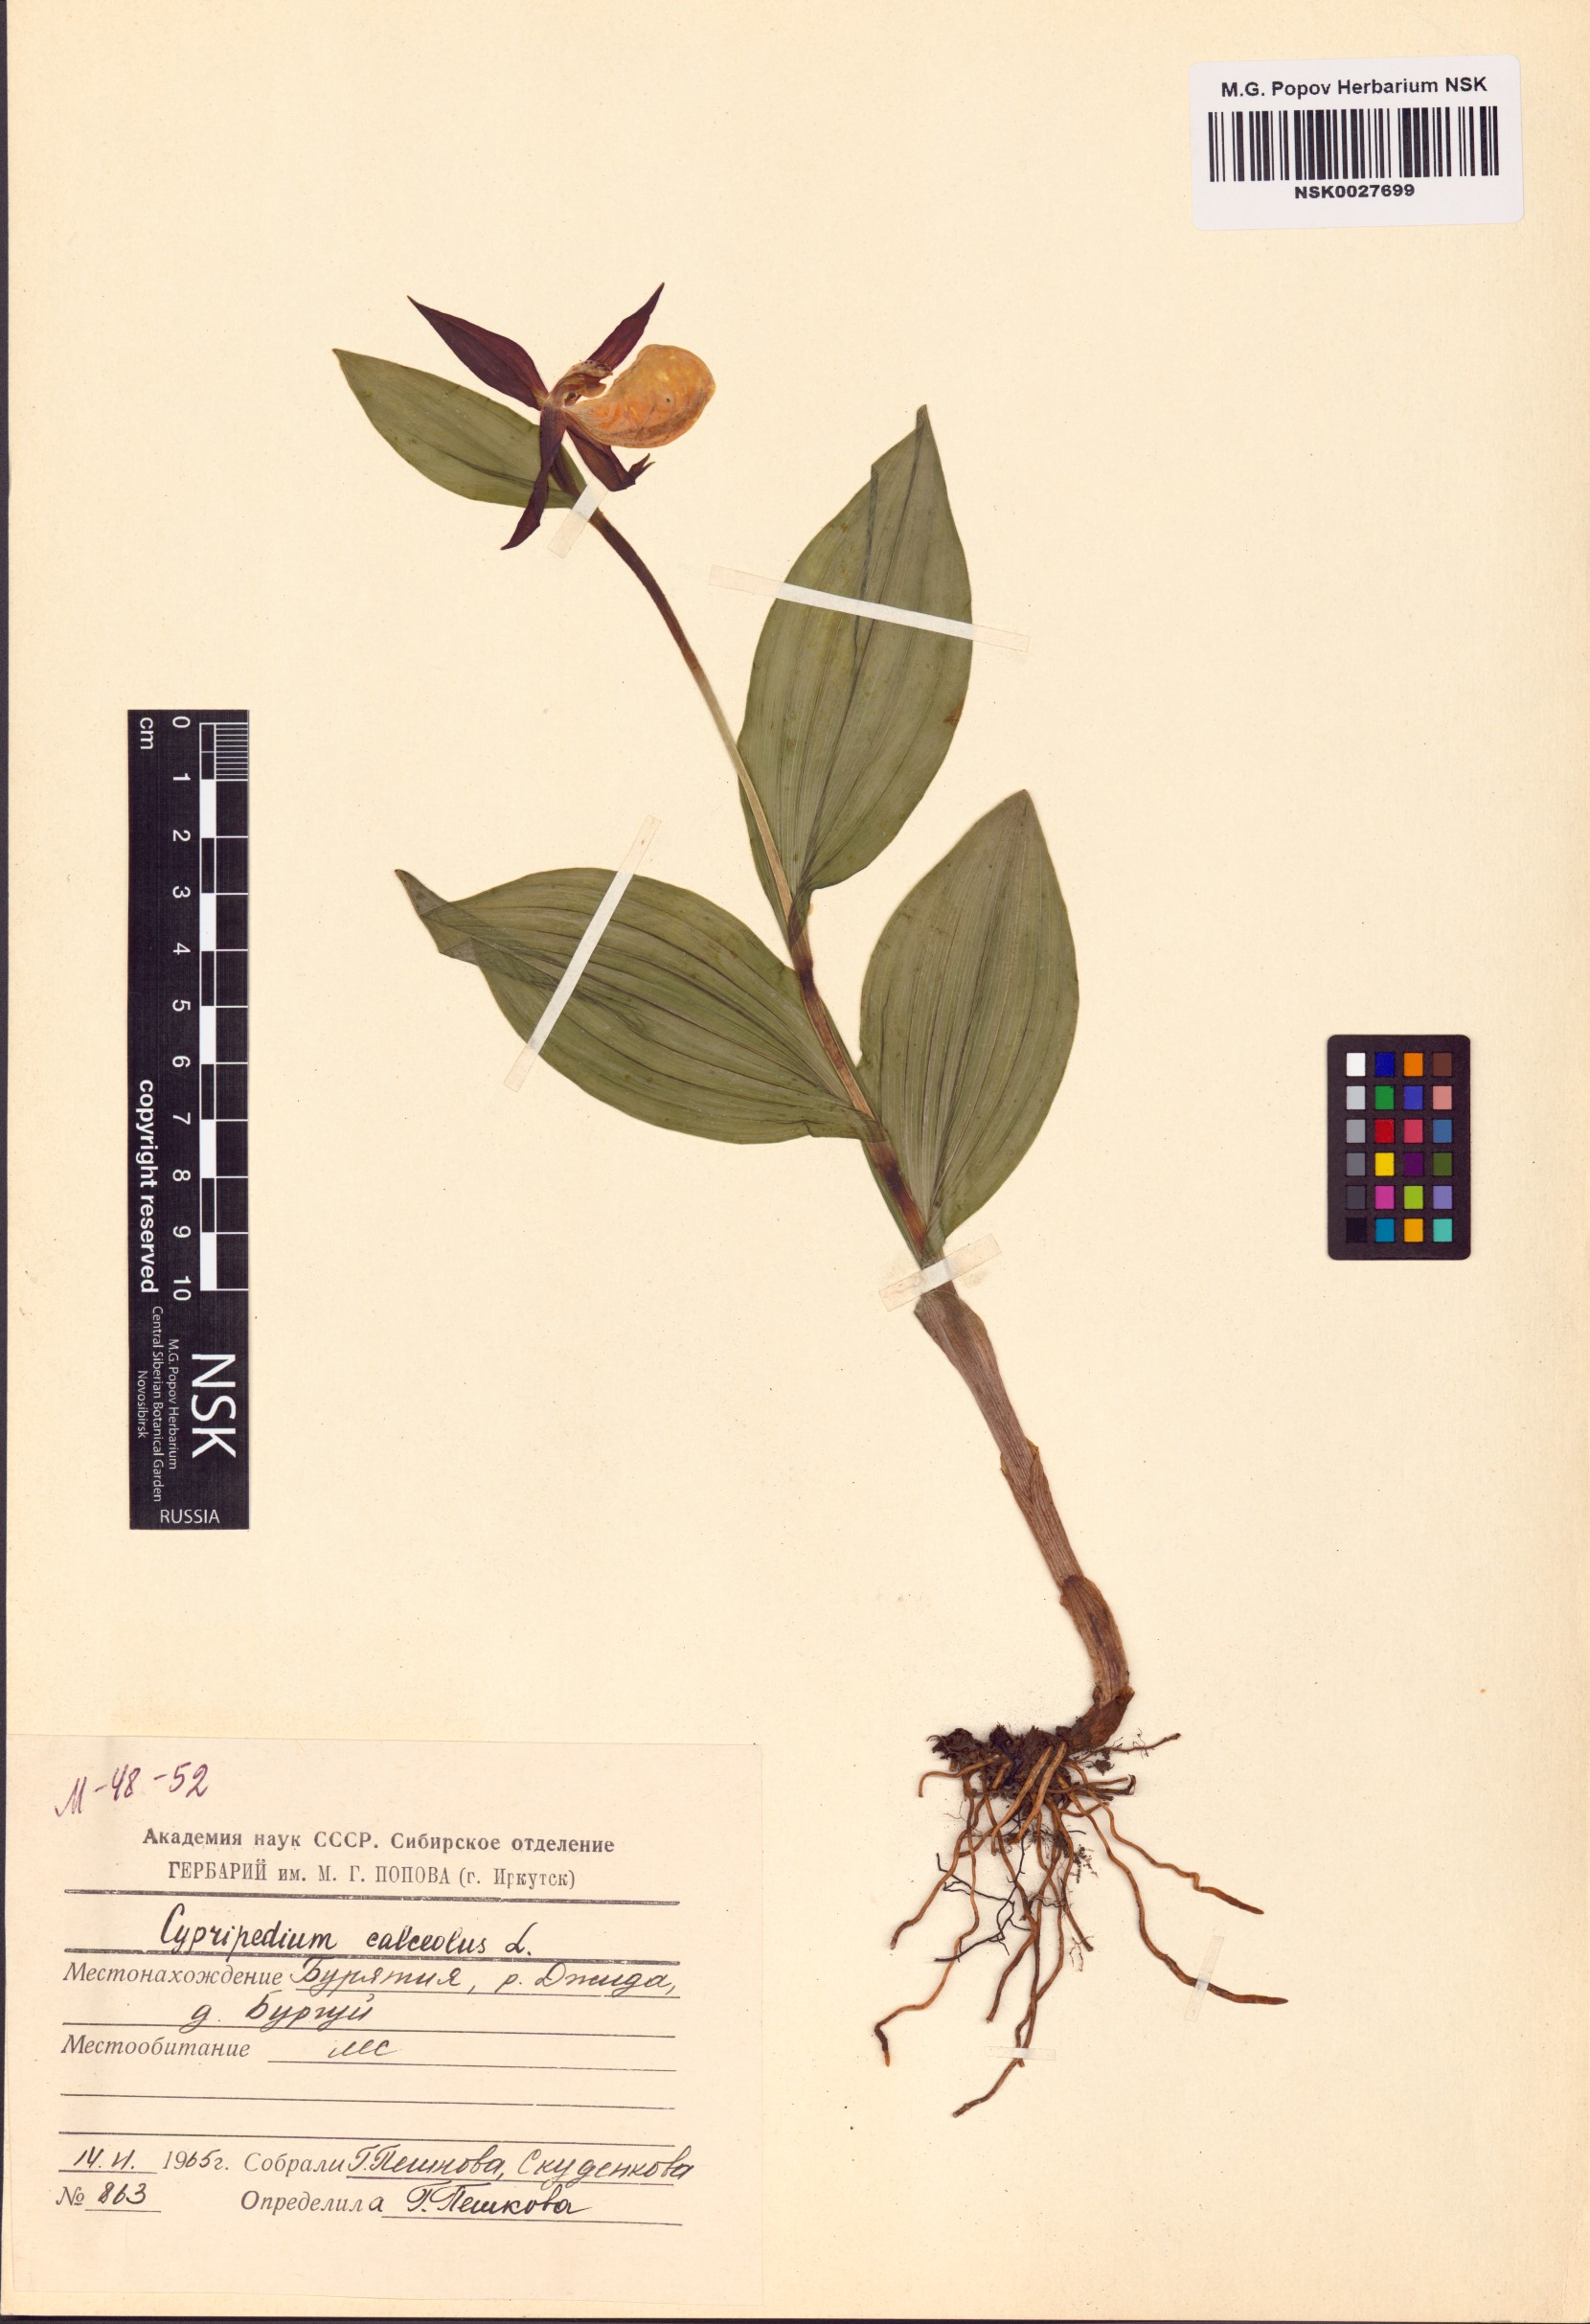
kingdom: Plantae
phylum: Tracheophyta
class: Liliopsida
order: Asparagales
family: Orchidaceae
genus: Cypripedium
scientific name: Cypripedium calceolus
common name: Lady's-slipper
